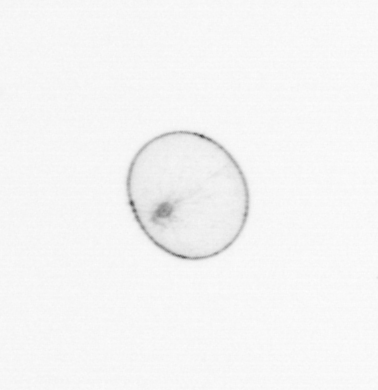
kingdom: Chromista
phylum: Myzozoa
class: Dinophyceae
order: Noctilucales
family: Noctilucaceae
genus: Noctiluca
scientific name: Noctiluca scintillans
